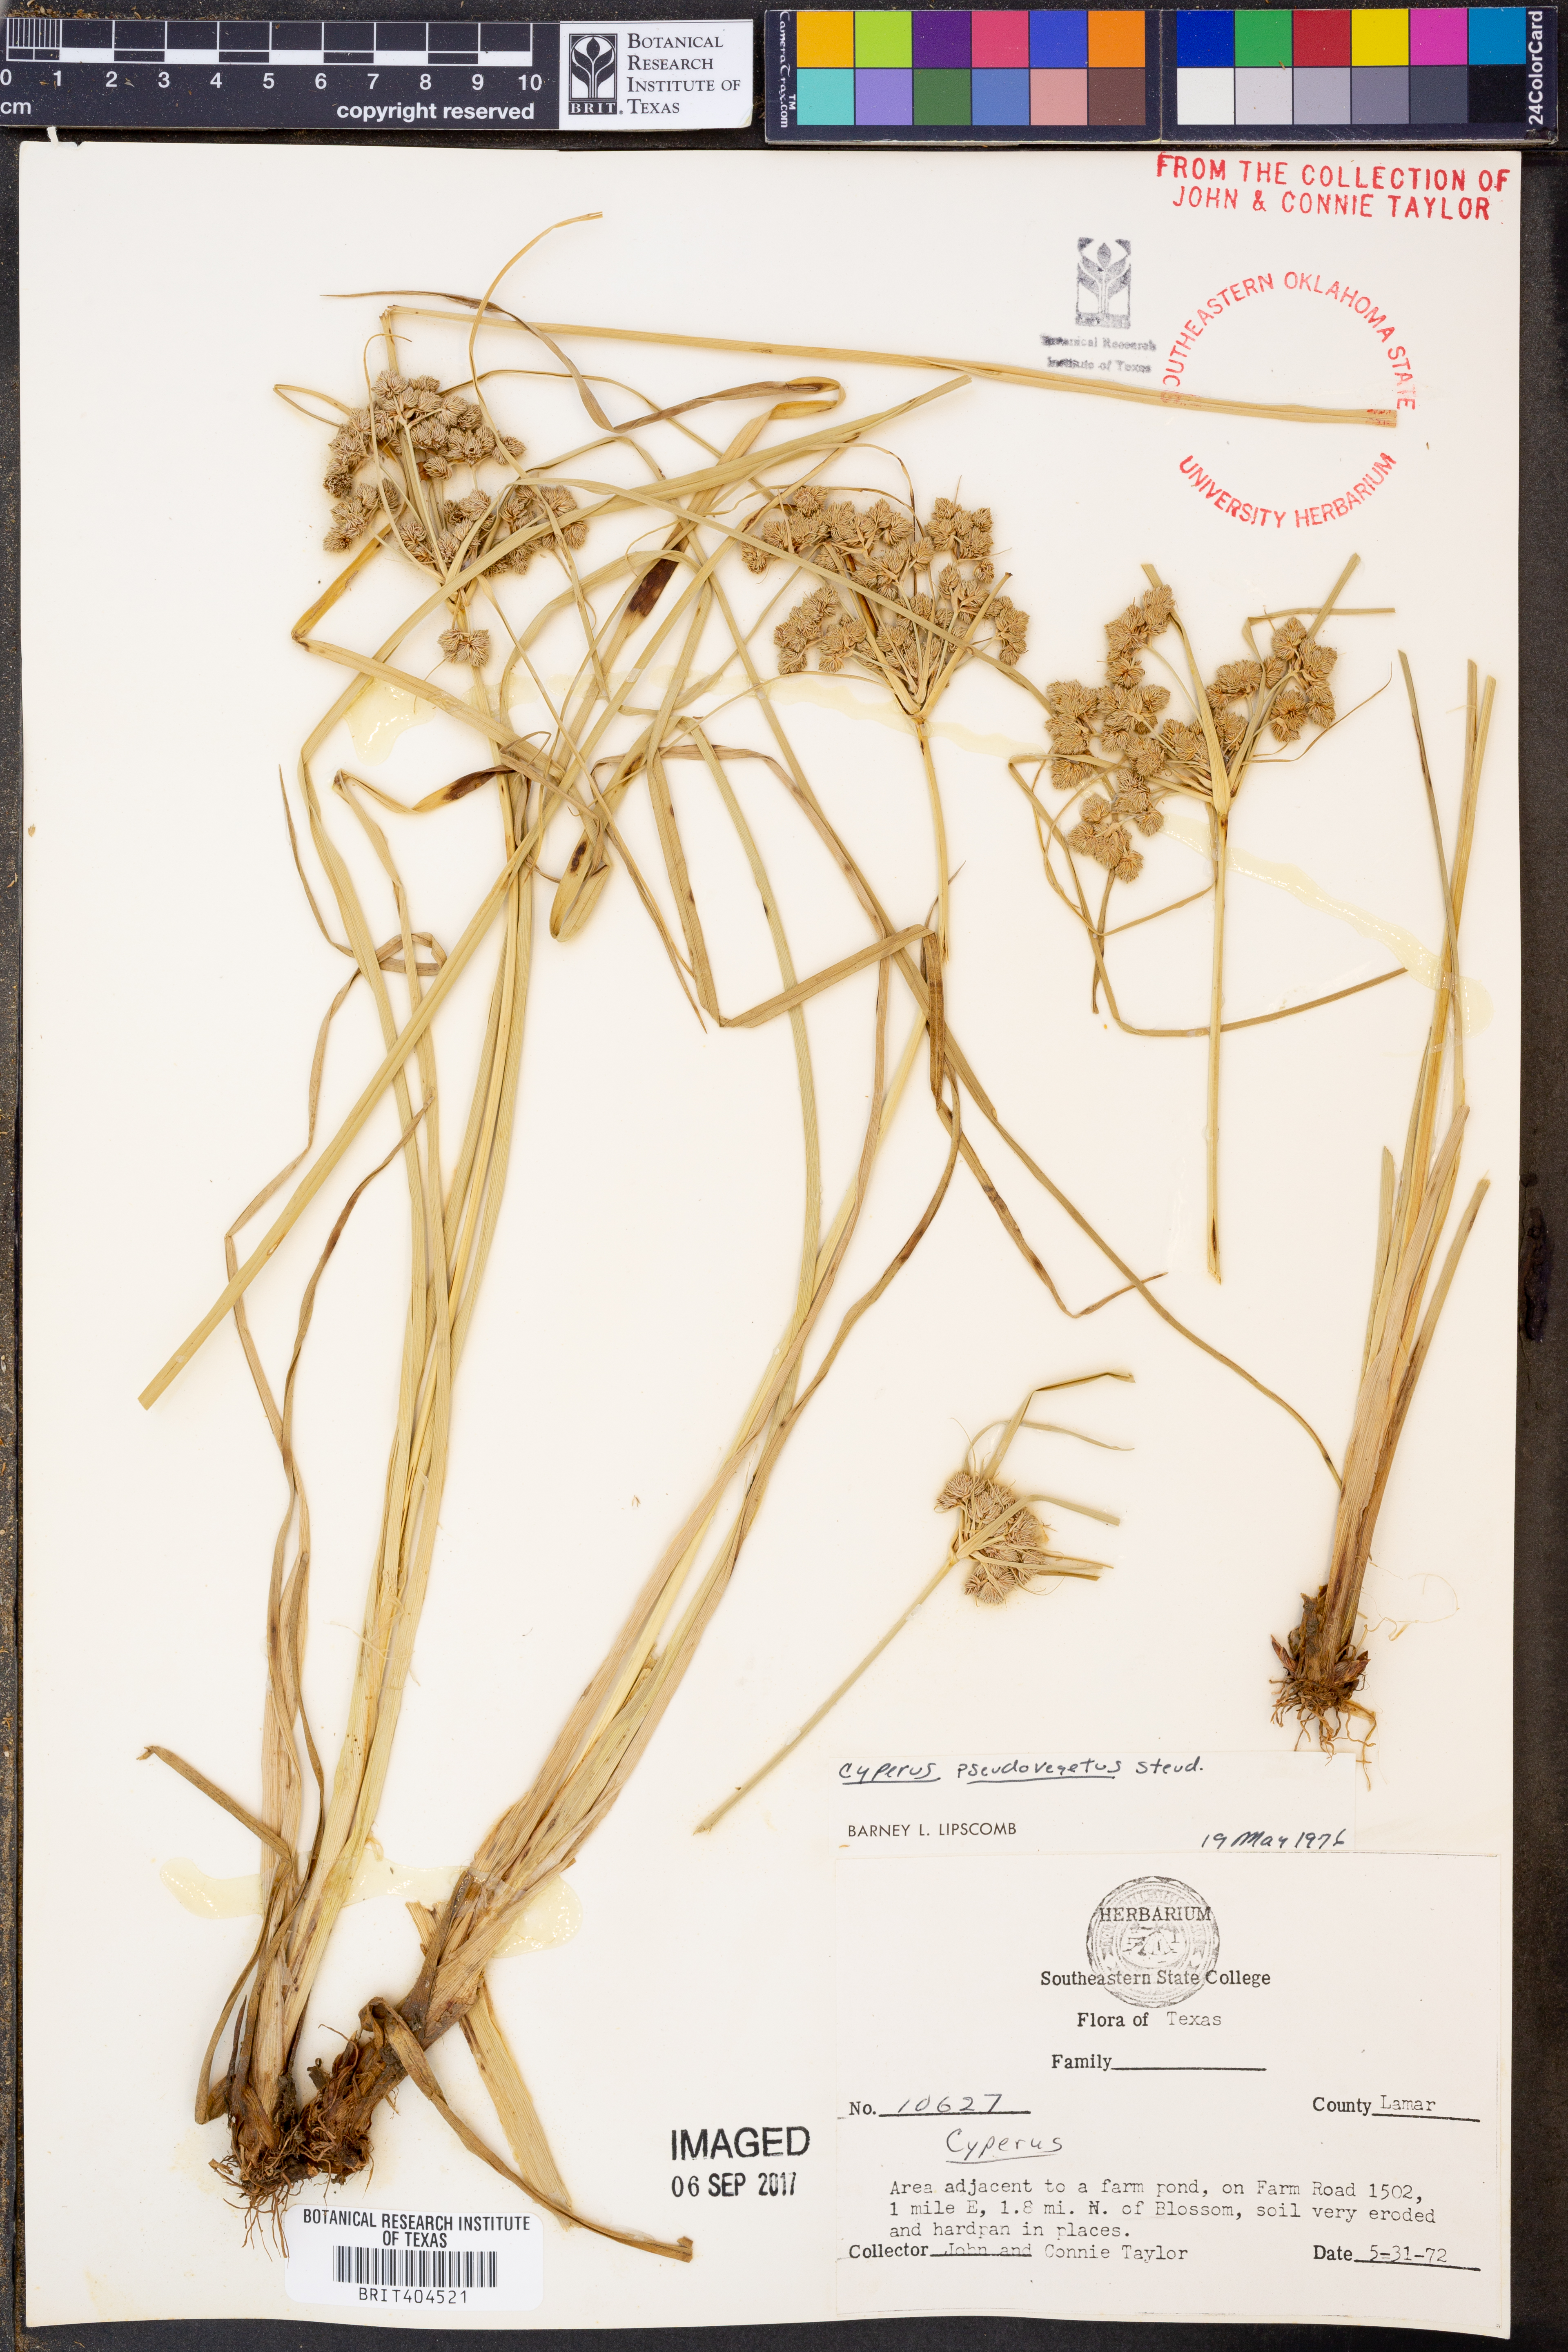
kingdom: Plantae
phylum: Tracheophyta
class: Liliopsida
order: Poales
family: Cyperaceae
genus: Cyperus
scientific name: Cyperus pseudovegetus
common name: Marsh flat sedge
